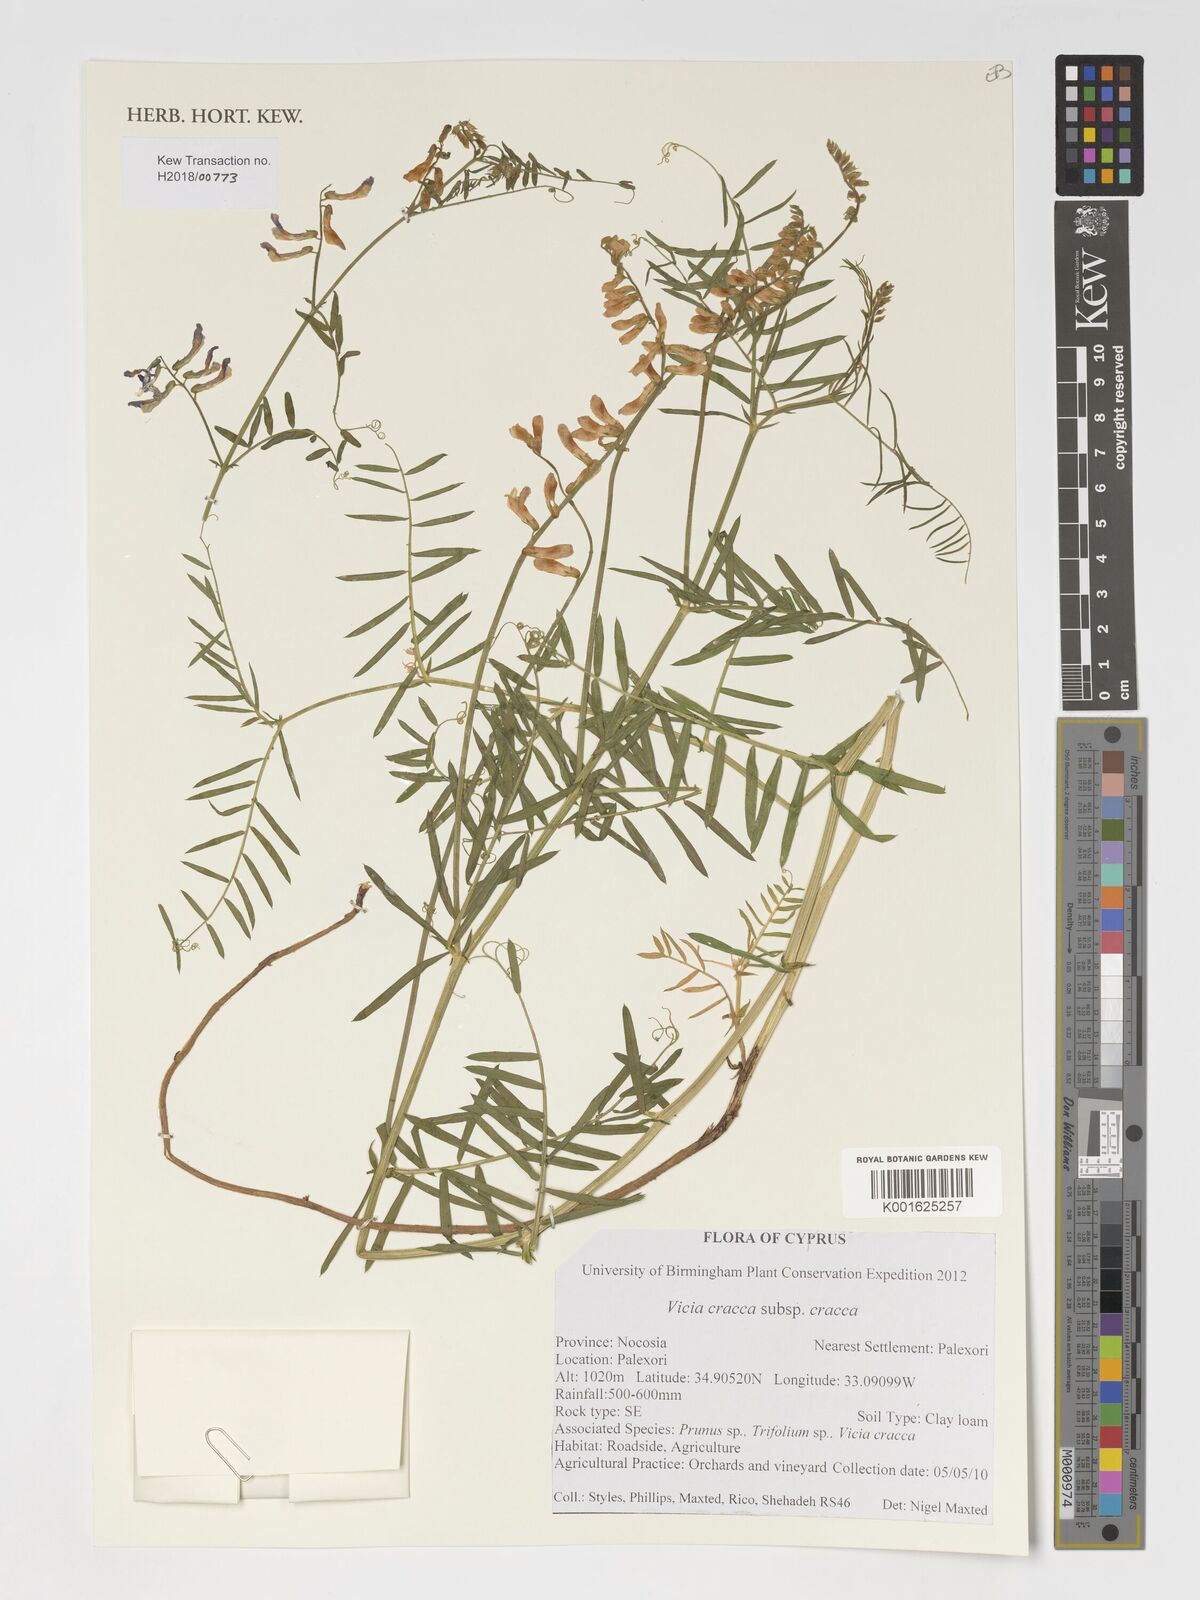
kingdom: Plantae
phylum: Tracheophyta
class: Magnoliopsida
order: Fabales
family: Fabaceae
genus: Vicia
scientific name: Vicia cracca
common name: Bird vetch
